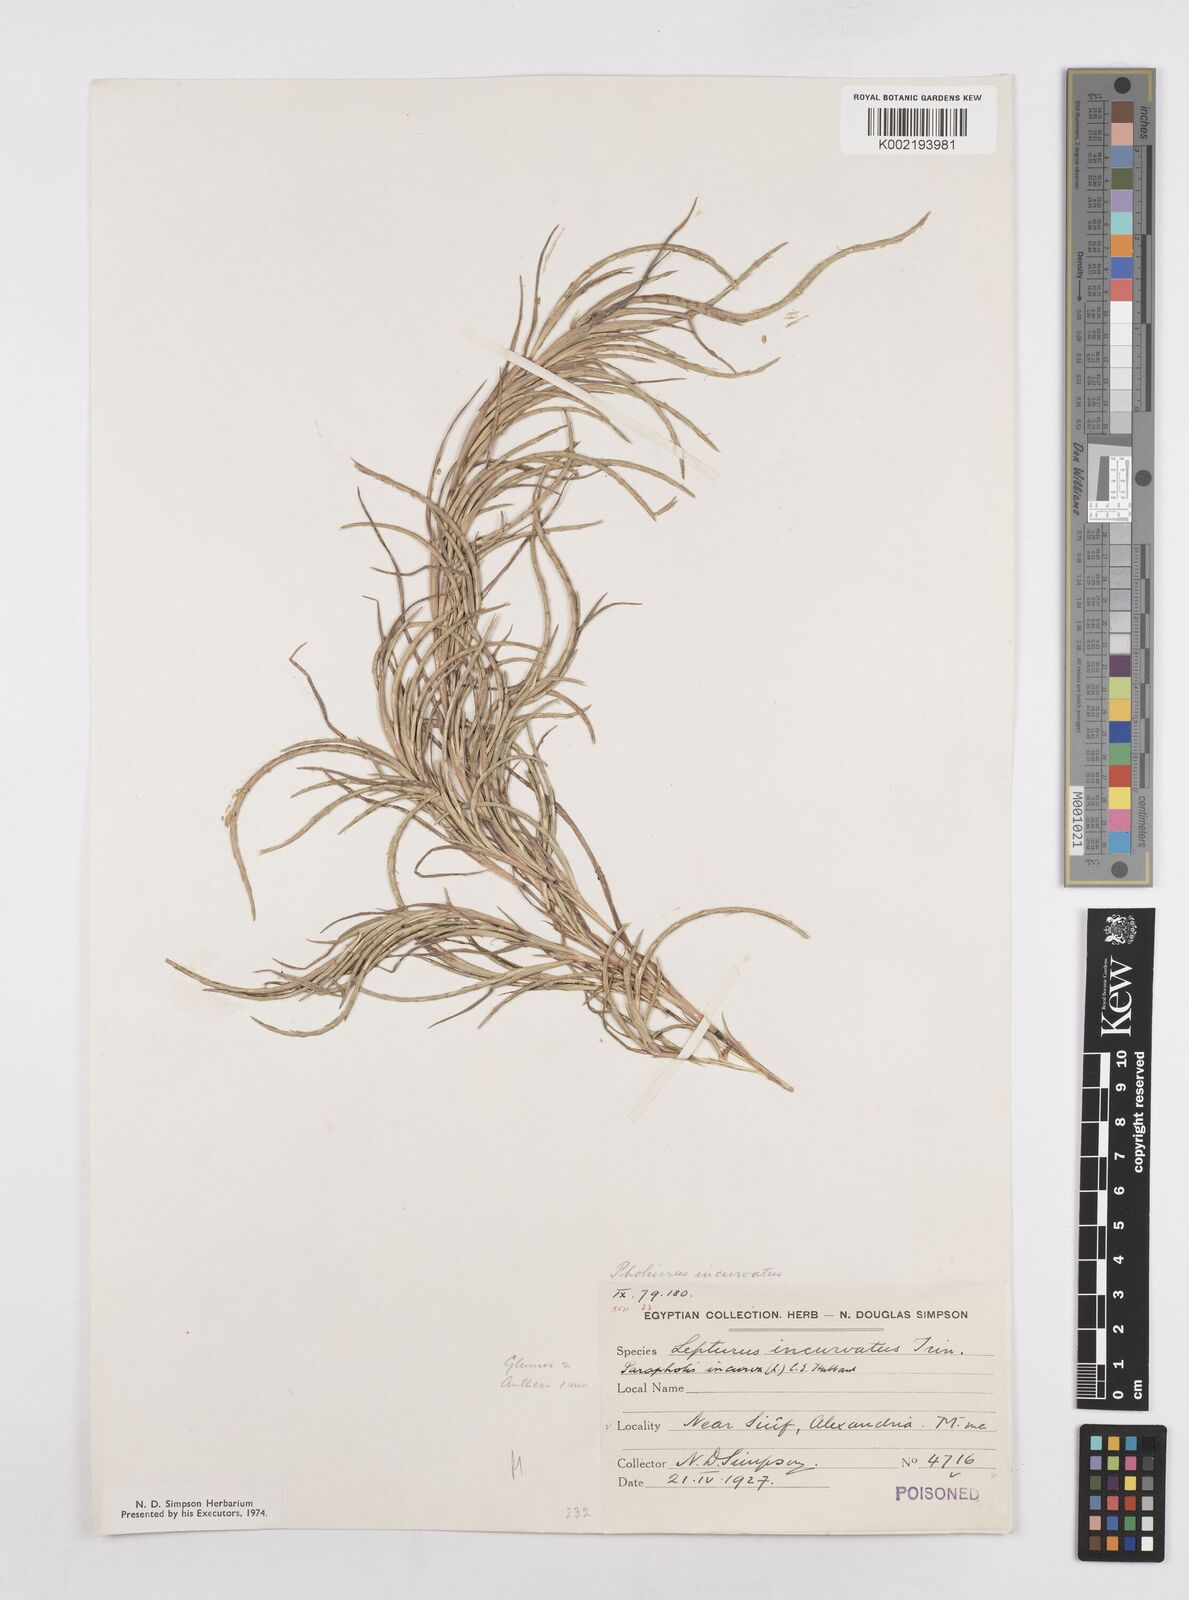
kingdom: Plantae
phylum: Tracheophyta
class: Liliopsida
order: Poales
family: Poaceae
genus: Parapholis
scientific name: Parapholis incurva
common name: Curved sicklegrass
